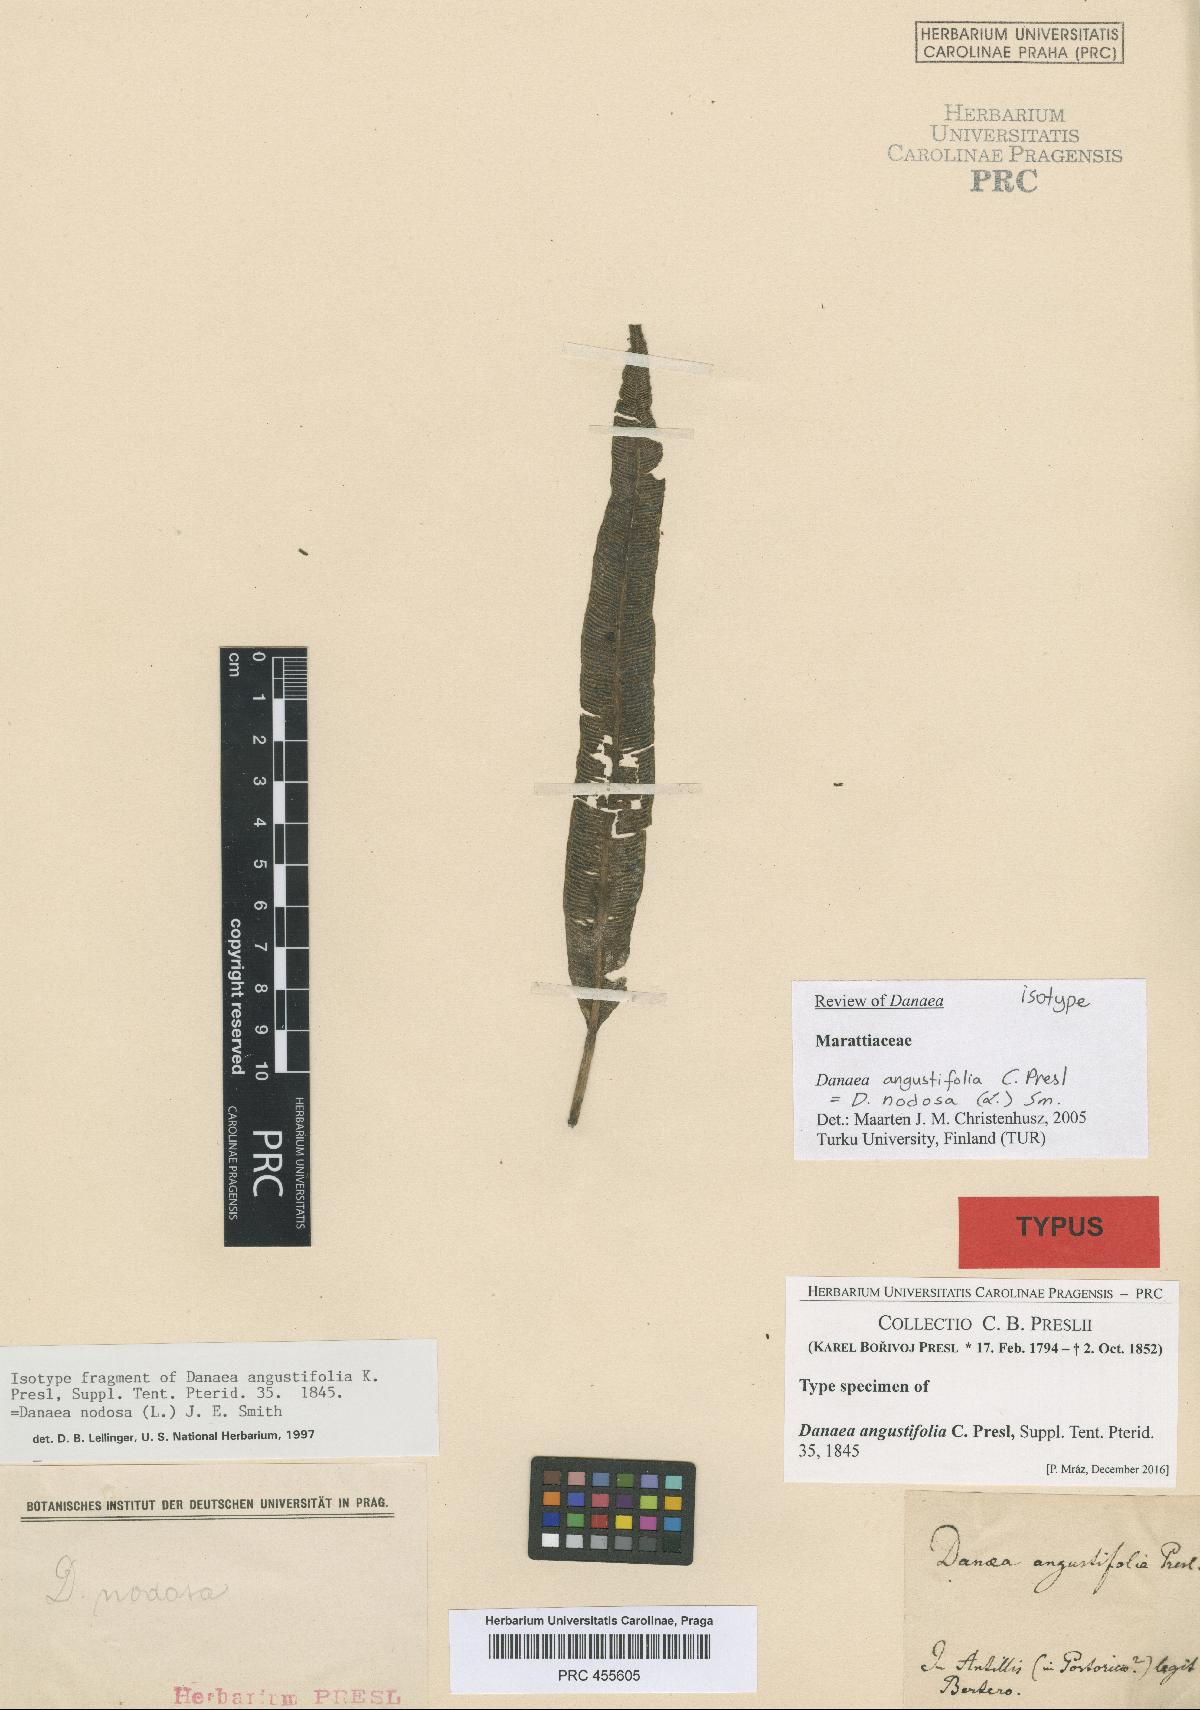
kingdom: Plantae
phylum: Tracheophyta
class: Polypodiopsida
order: Marattiales
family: Marattiaceae
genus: Danaea
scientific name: Danaea nodosa
